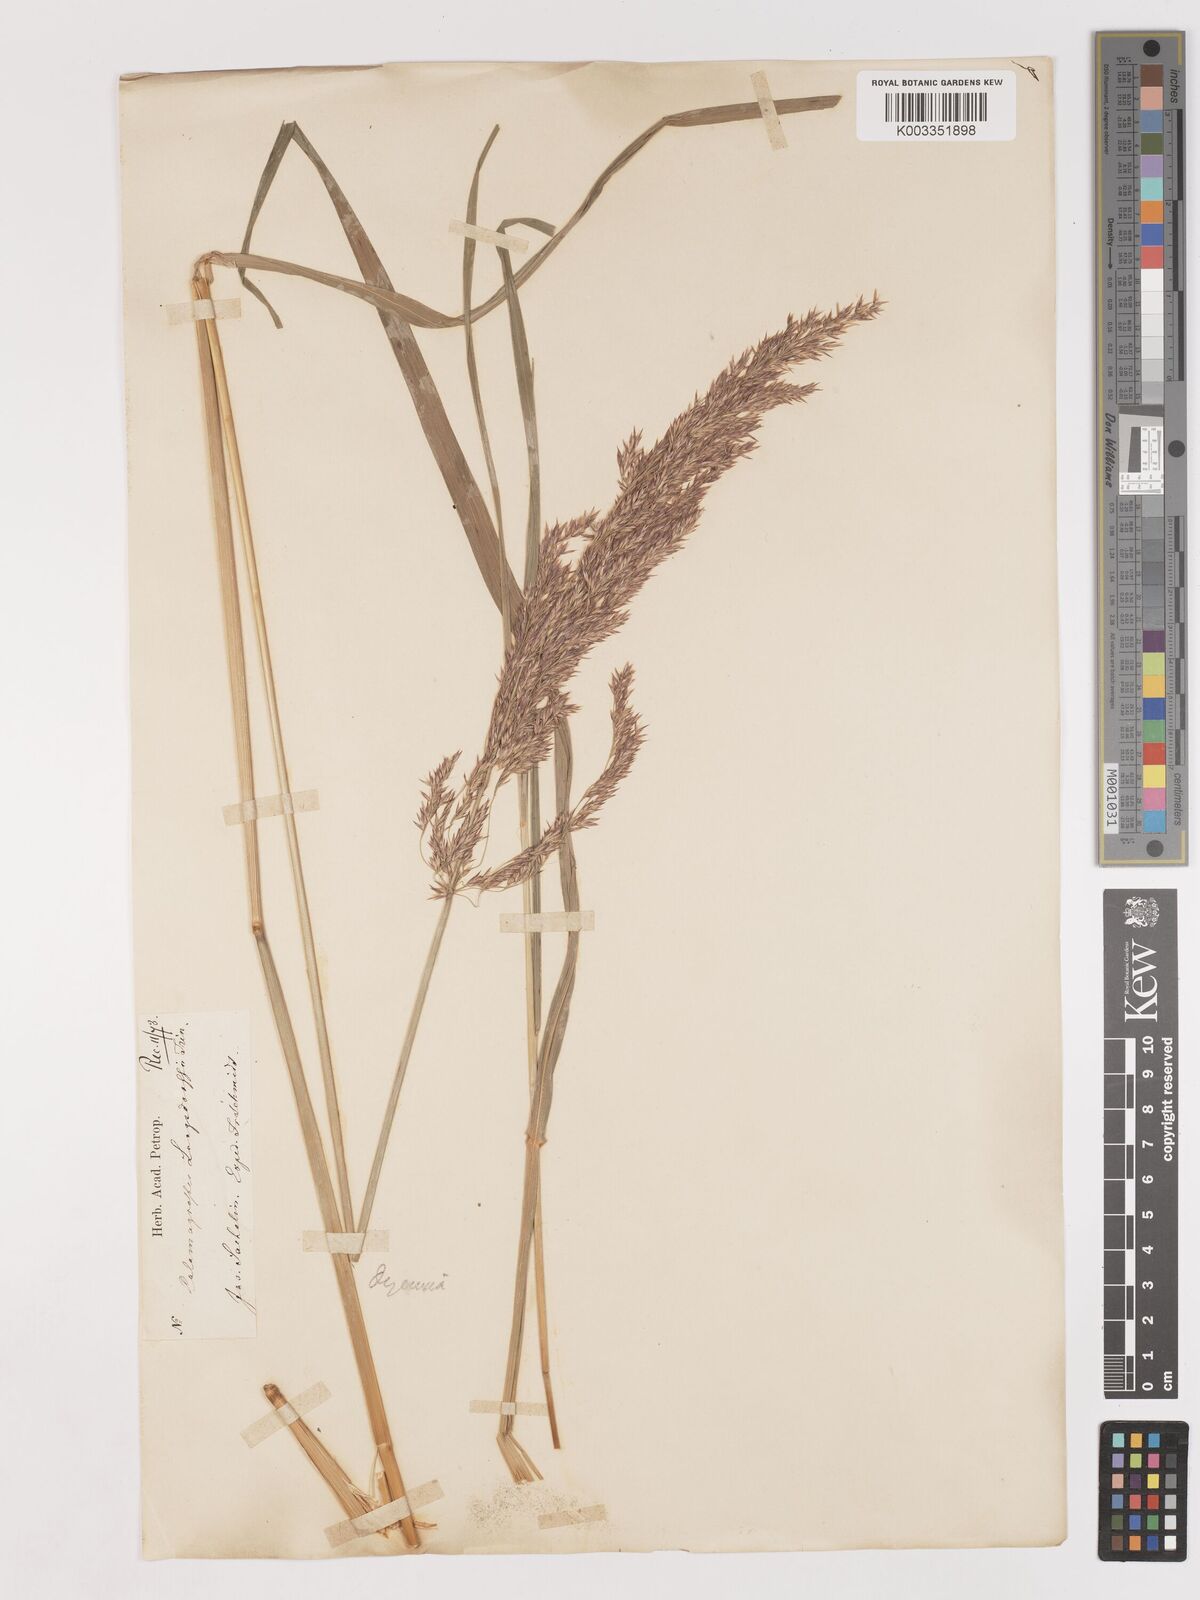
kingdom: Plantae
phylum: Tracheophyta
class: Liliopsida
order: Poales
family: Poaceae
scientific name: Poaceae
